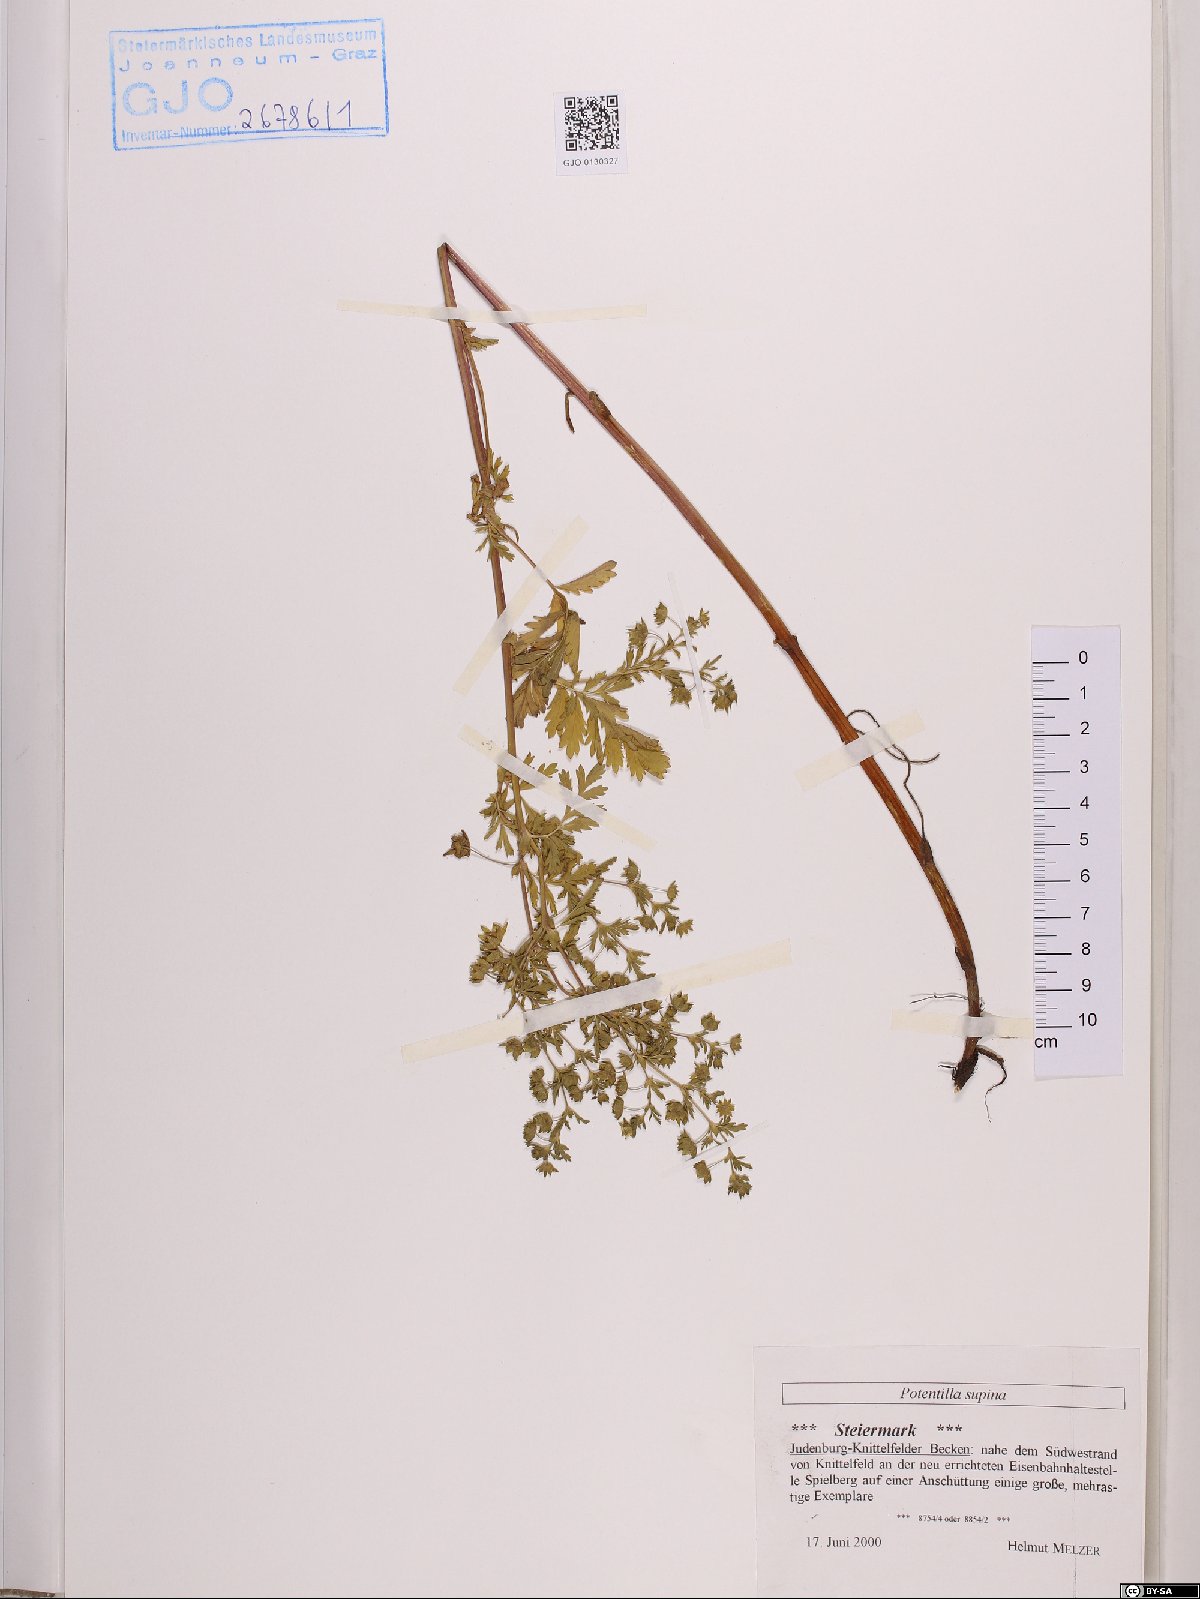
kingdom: Plantae
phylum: Tracheophyta
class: Magnoliopsida
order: Rosales
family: Rosaceae
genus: Potentilla
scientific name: Potentilla supina
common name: Prostrate cinquefoil
